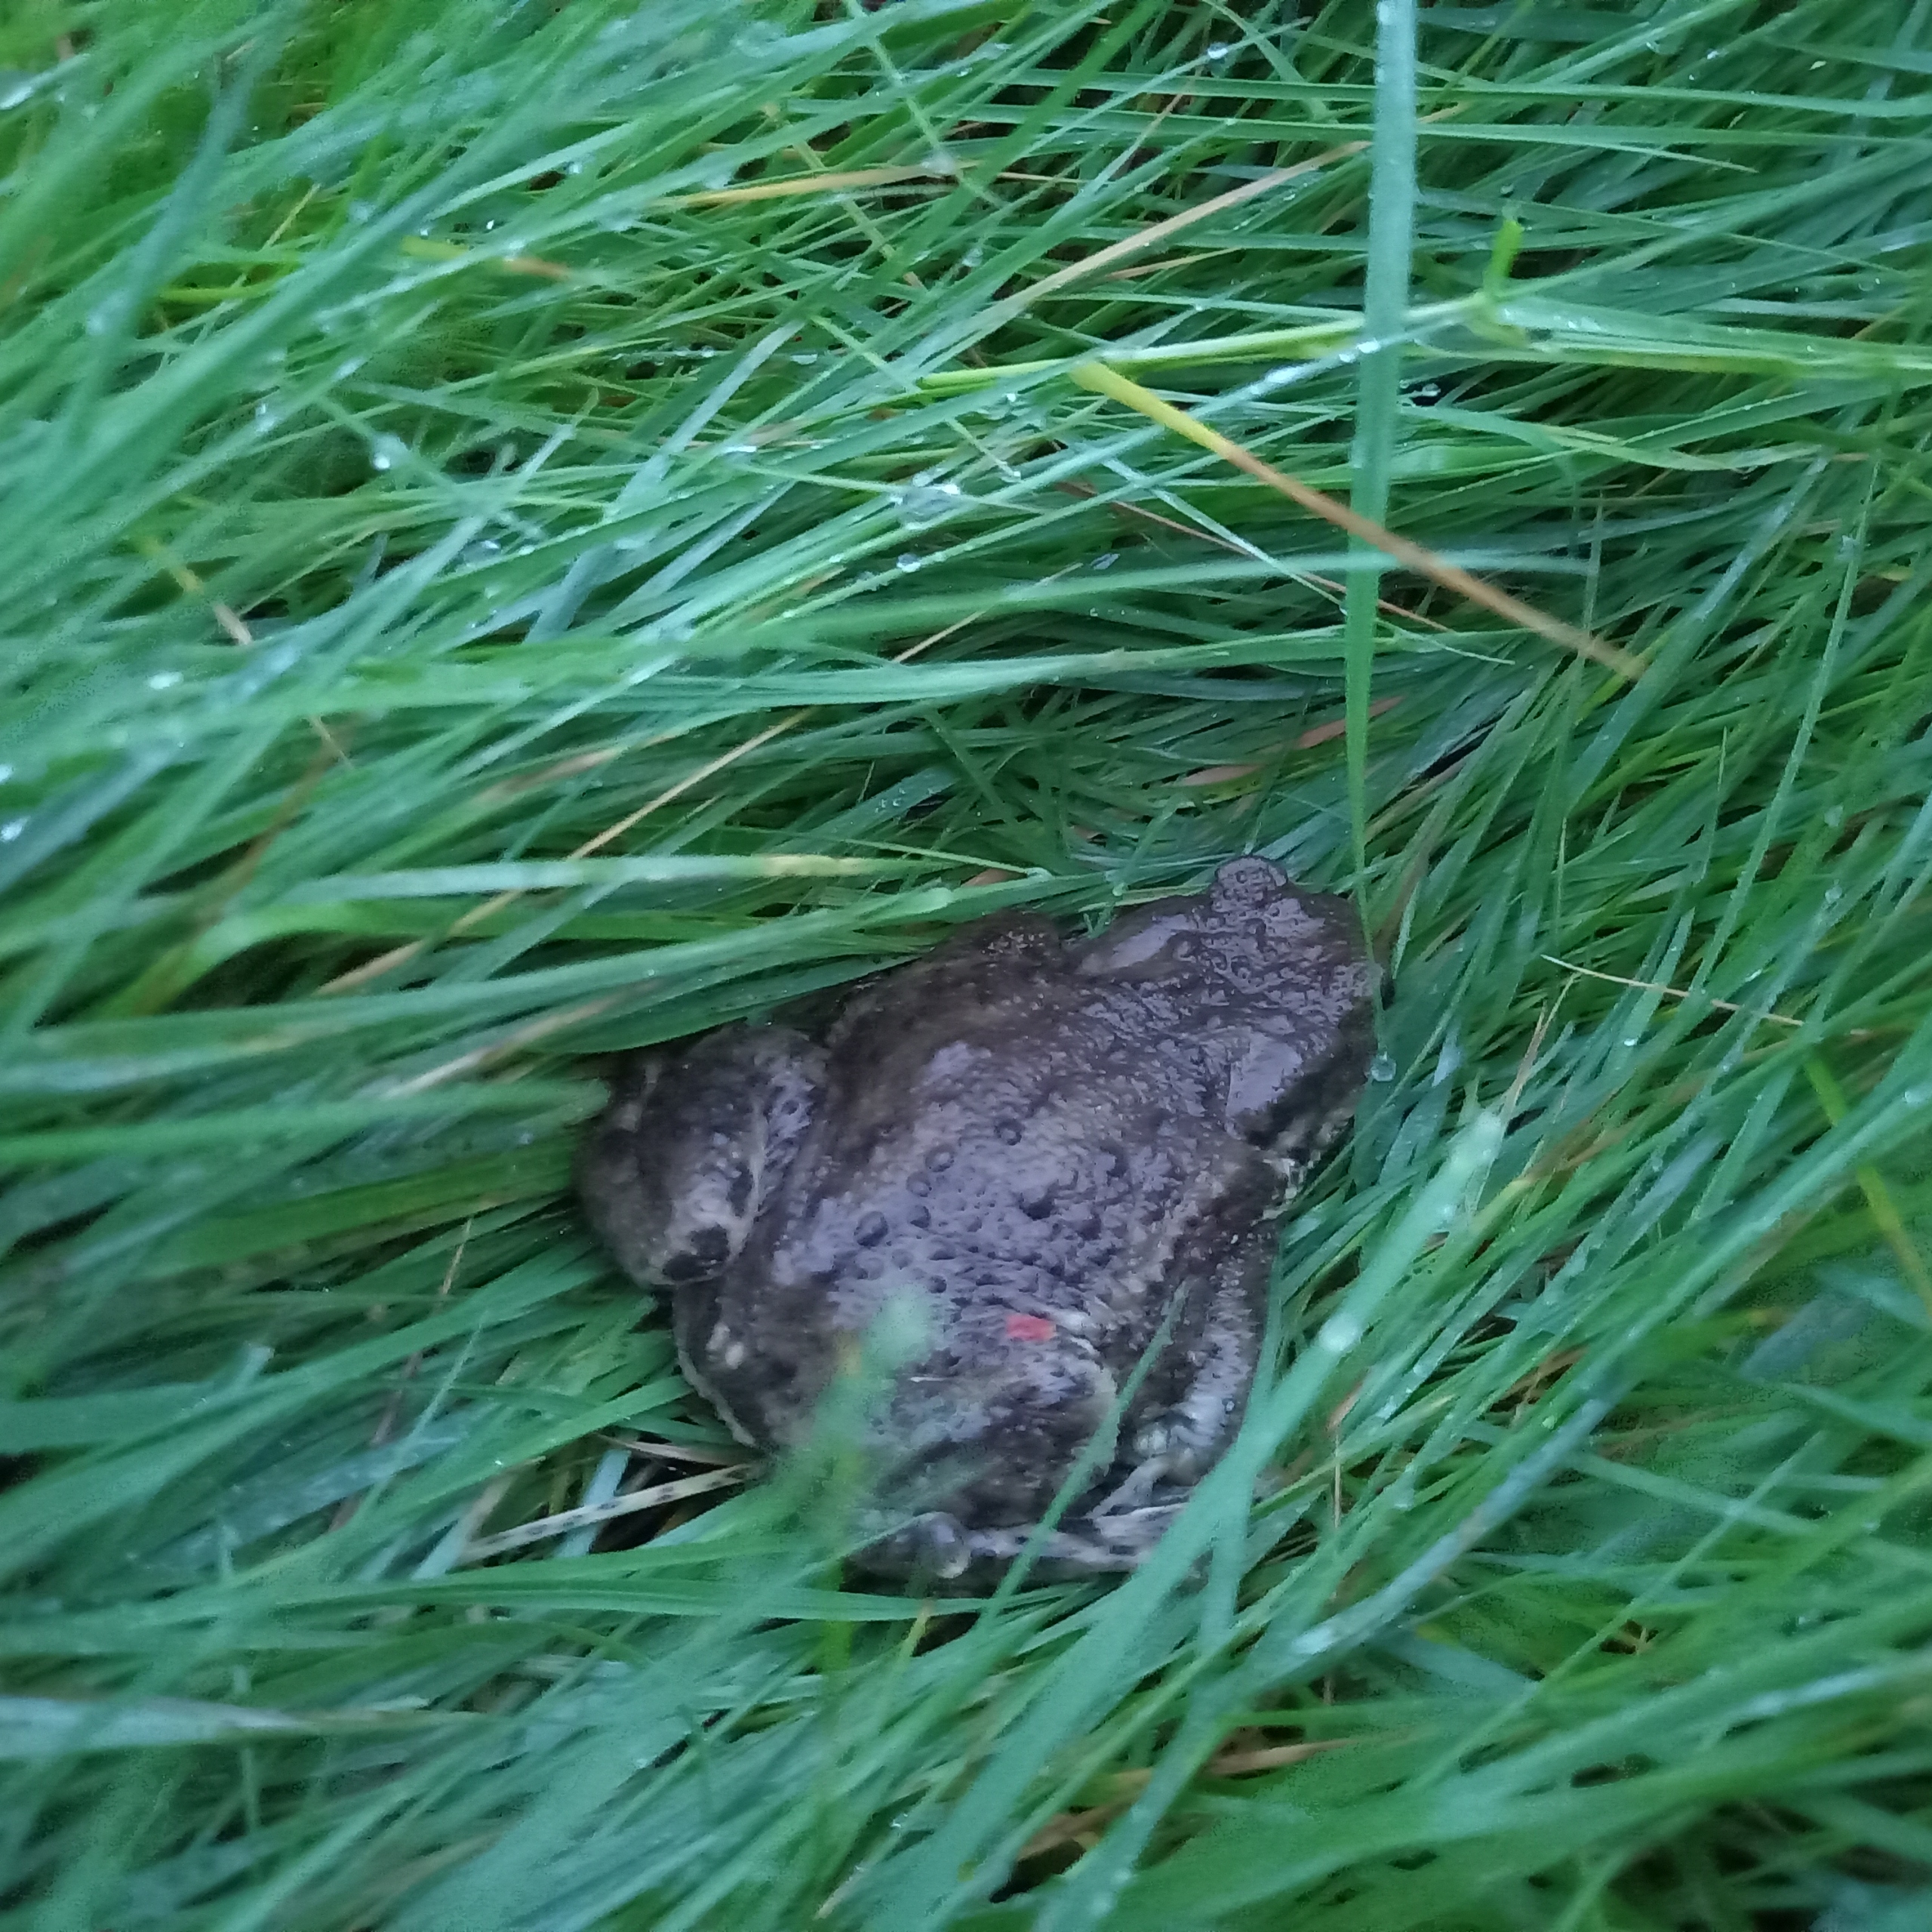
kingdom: Animalia
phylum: Chordata
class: Amphibia
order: Anura
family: Bufonidae
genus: Bufo
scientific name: Bufo bufo
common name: Skrubtudse
